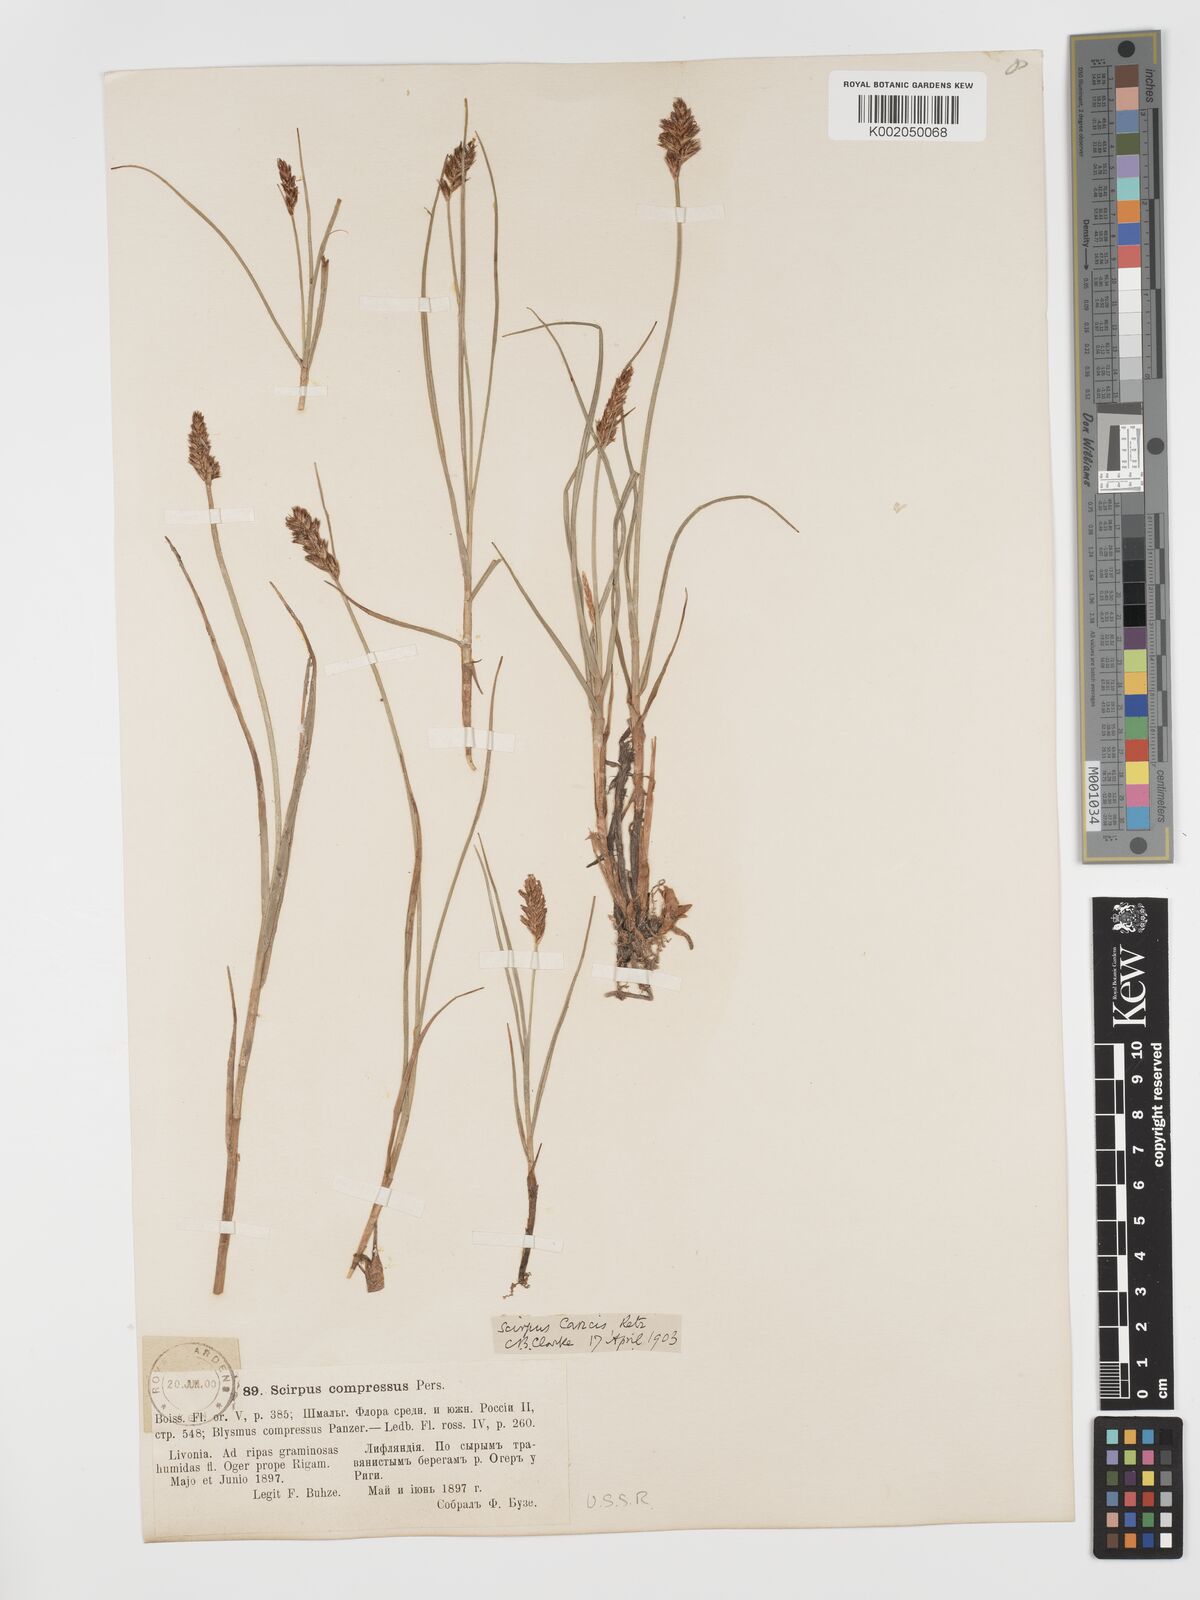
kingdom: Plantae
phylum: Tracheophyta
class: Liliopsida
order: Poales
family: Cyperaceae
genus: Blysmus
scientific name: Blysmus compressus
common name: Flat-sedge
